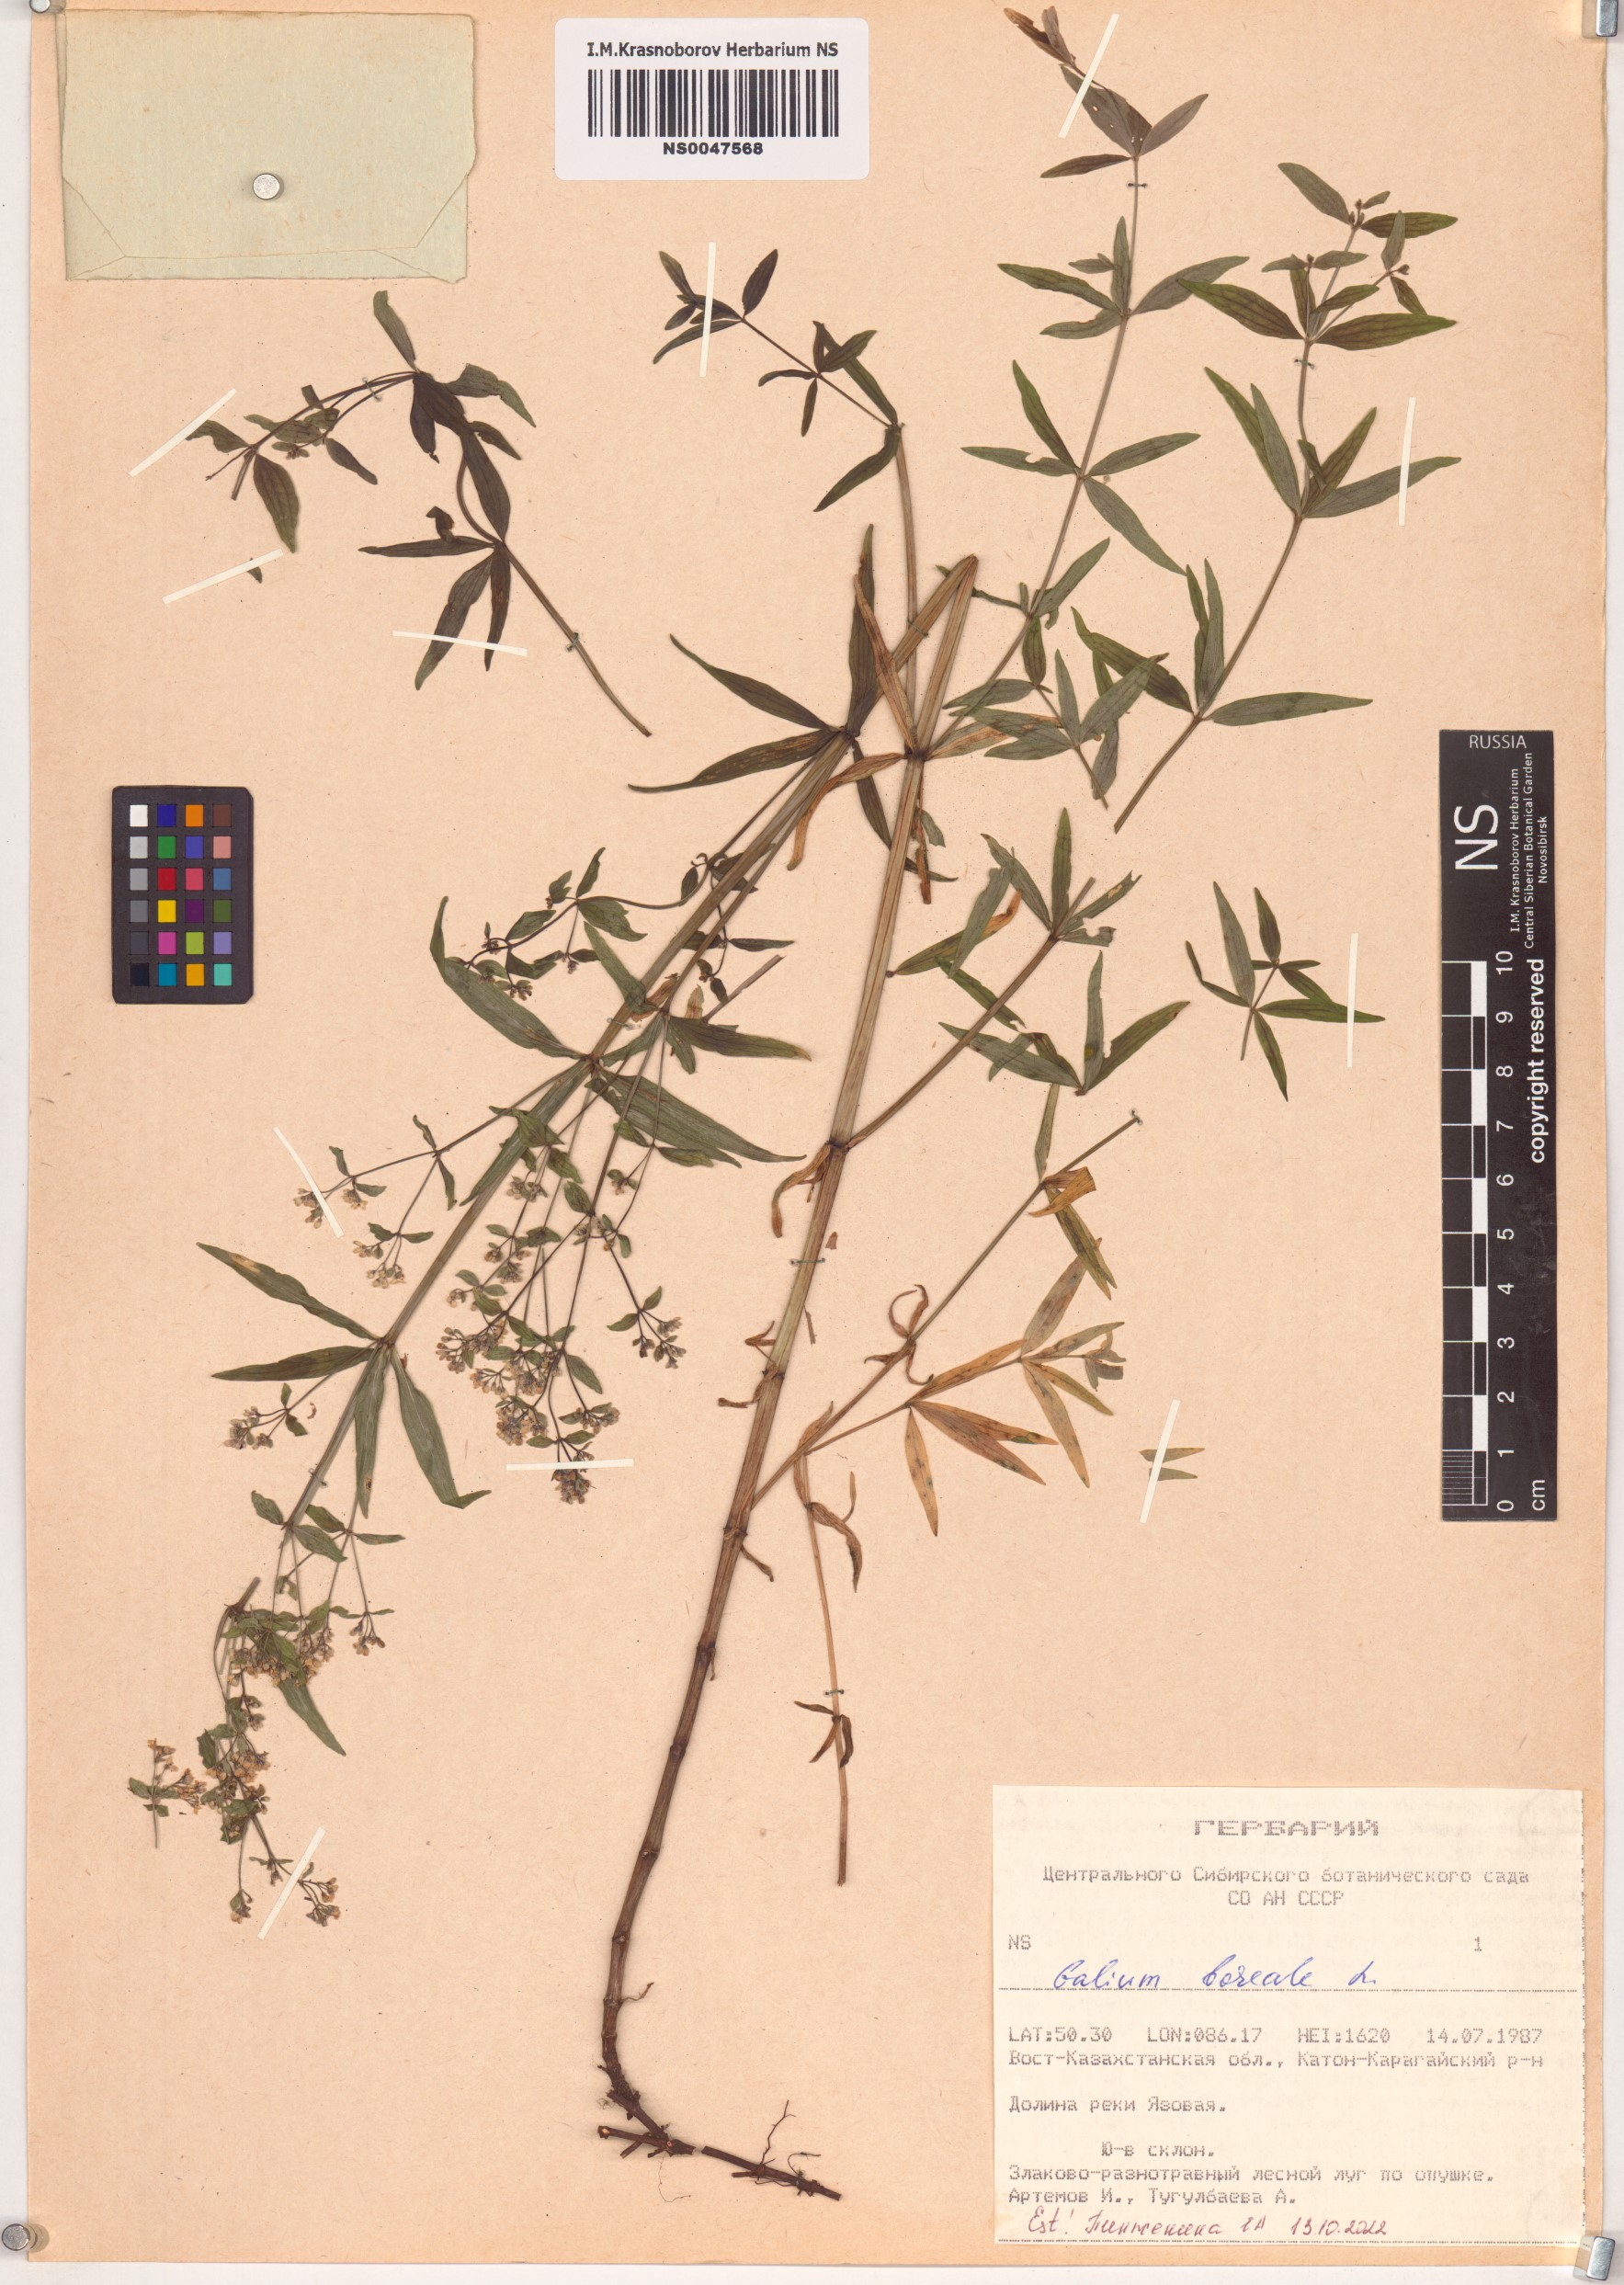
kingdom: Plantae
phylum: Tracheophyta
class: Magnoliopsida
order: Gentianales
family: Rubiaceae
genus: Galium
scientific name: Galium boreale
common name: Northern bedstraw
